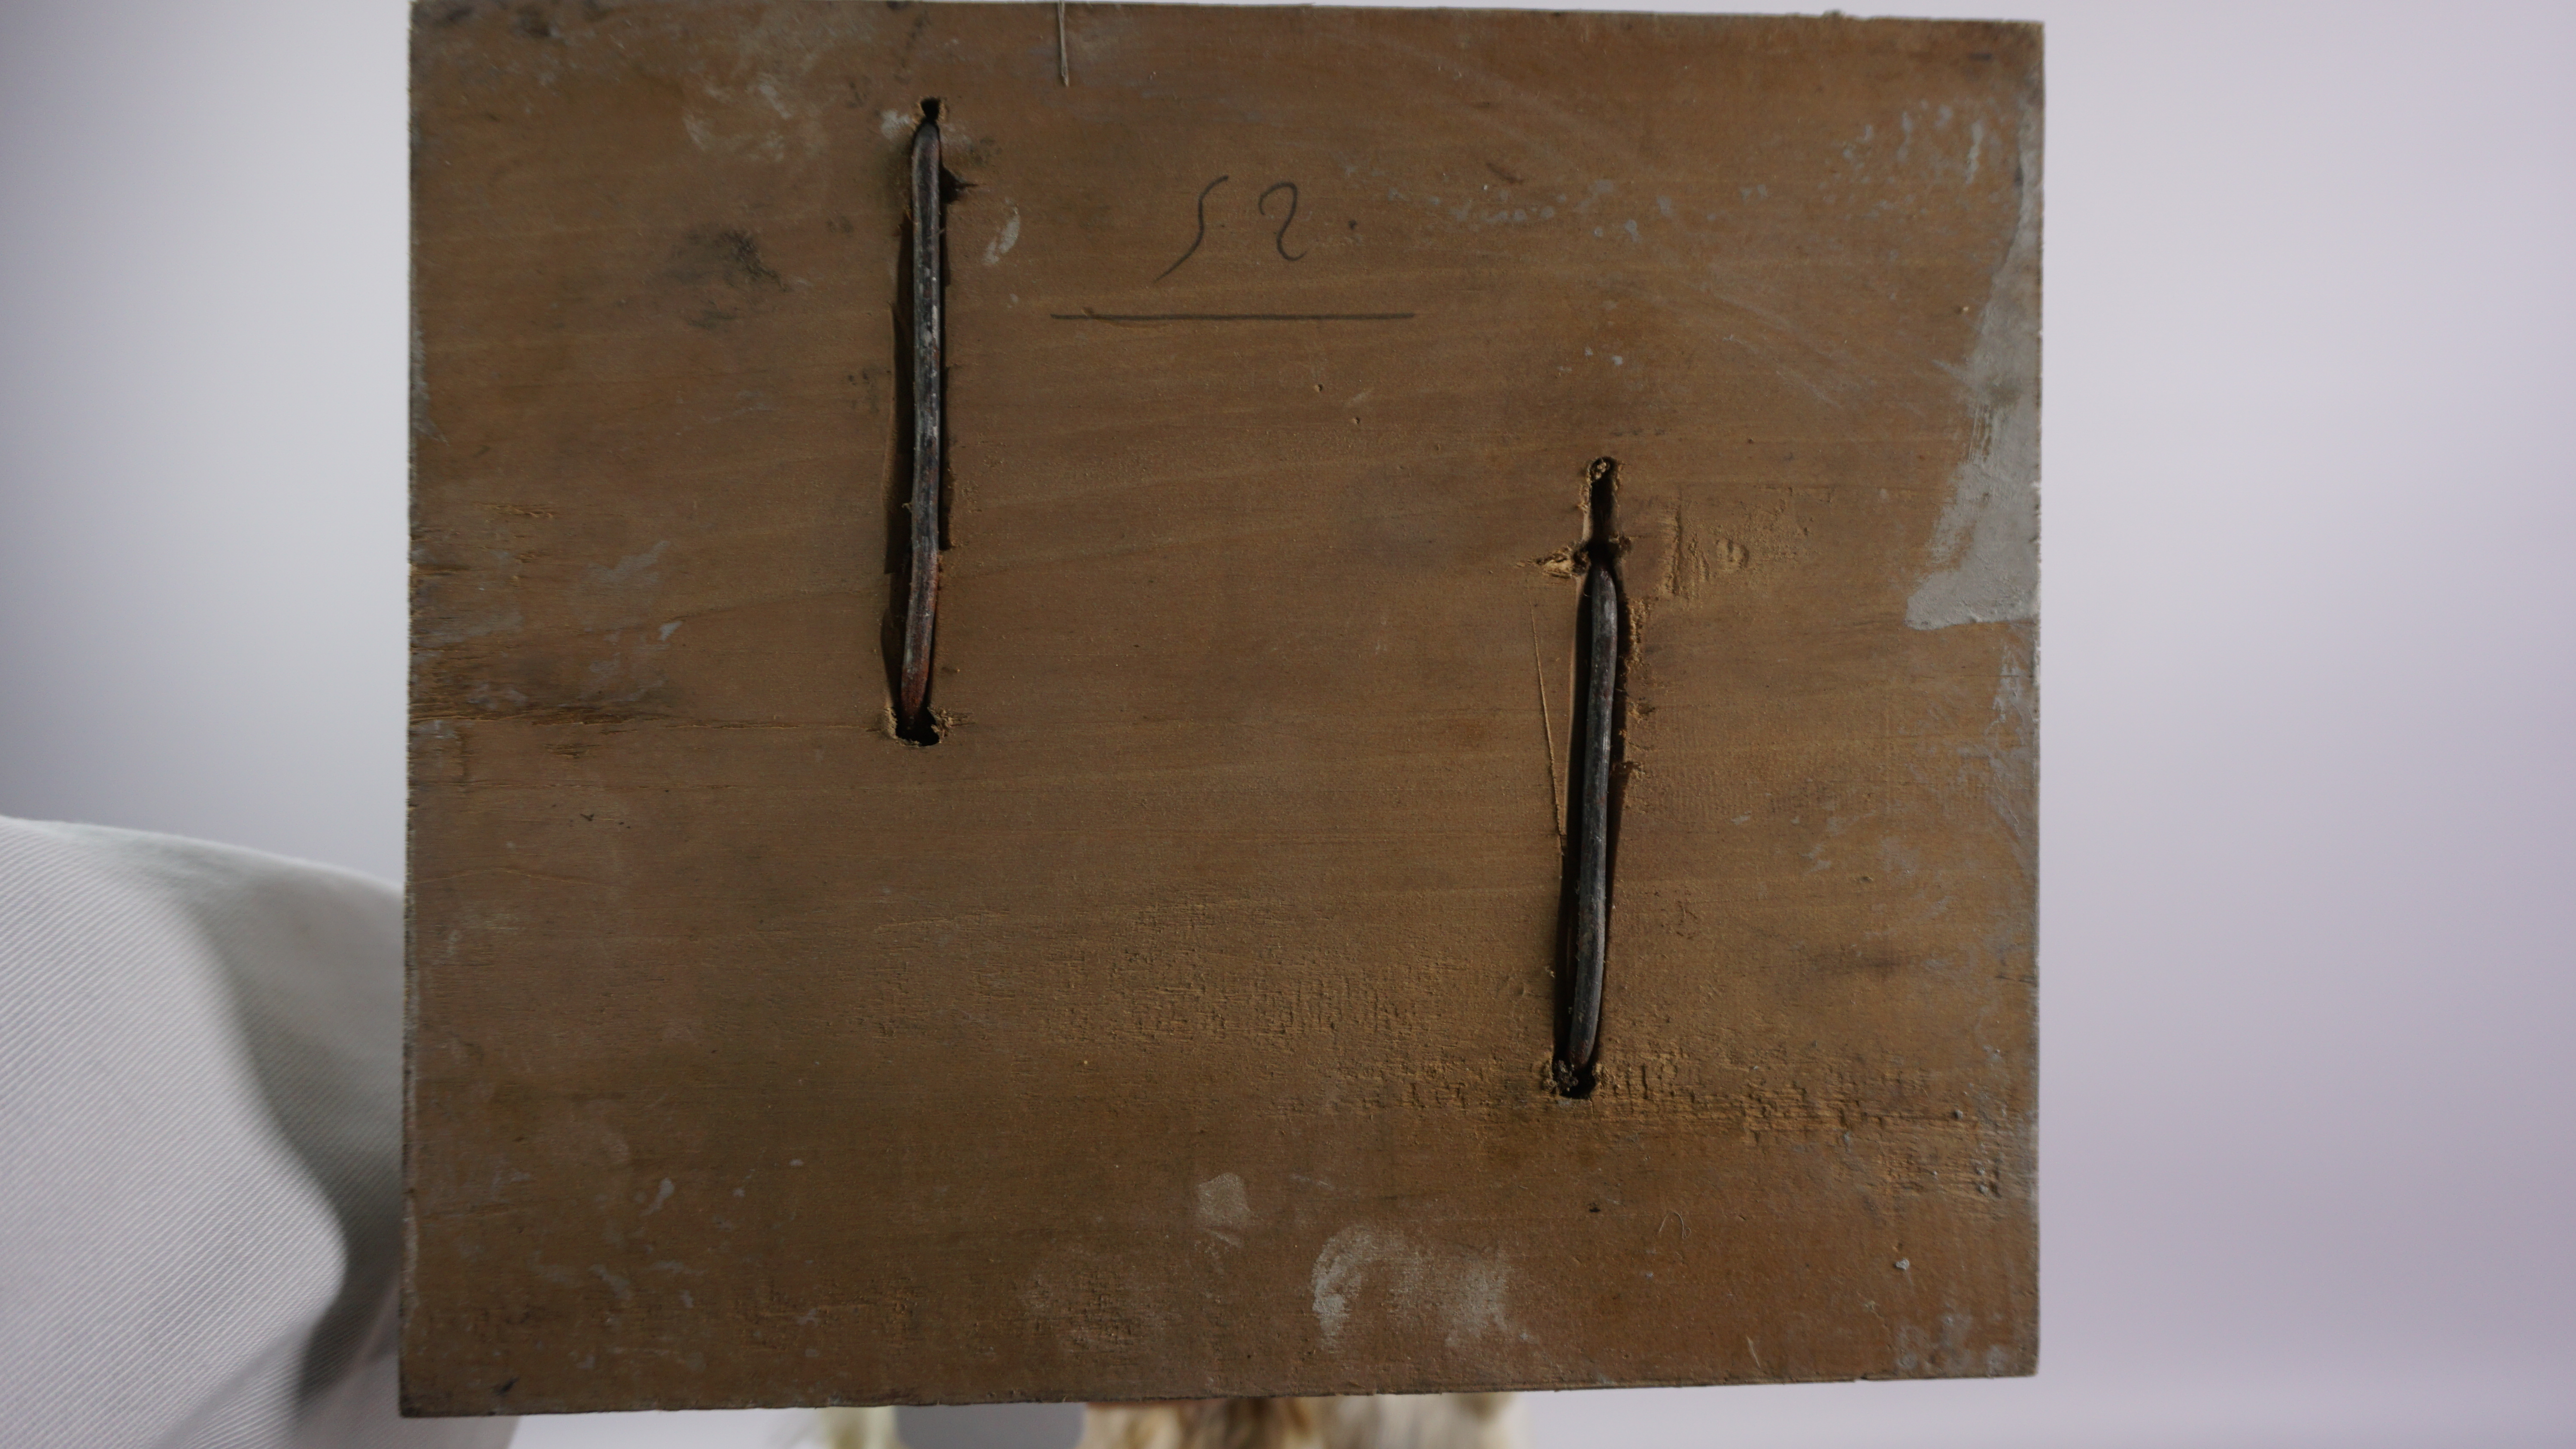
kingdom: Animalia
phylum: Chordata
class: Aves
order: Charadriiformes
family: Laridae
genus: Ichthyaetus
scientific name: Ichthyaetus ichthyaetus
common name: Pallas's gull
